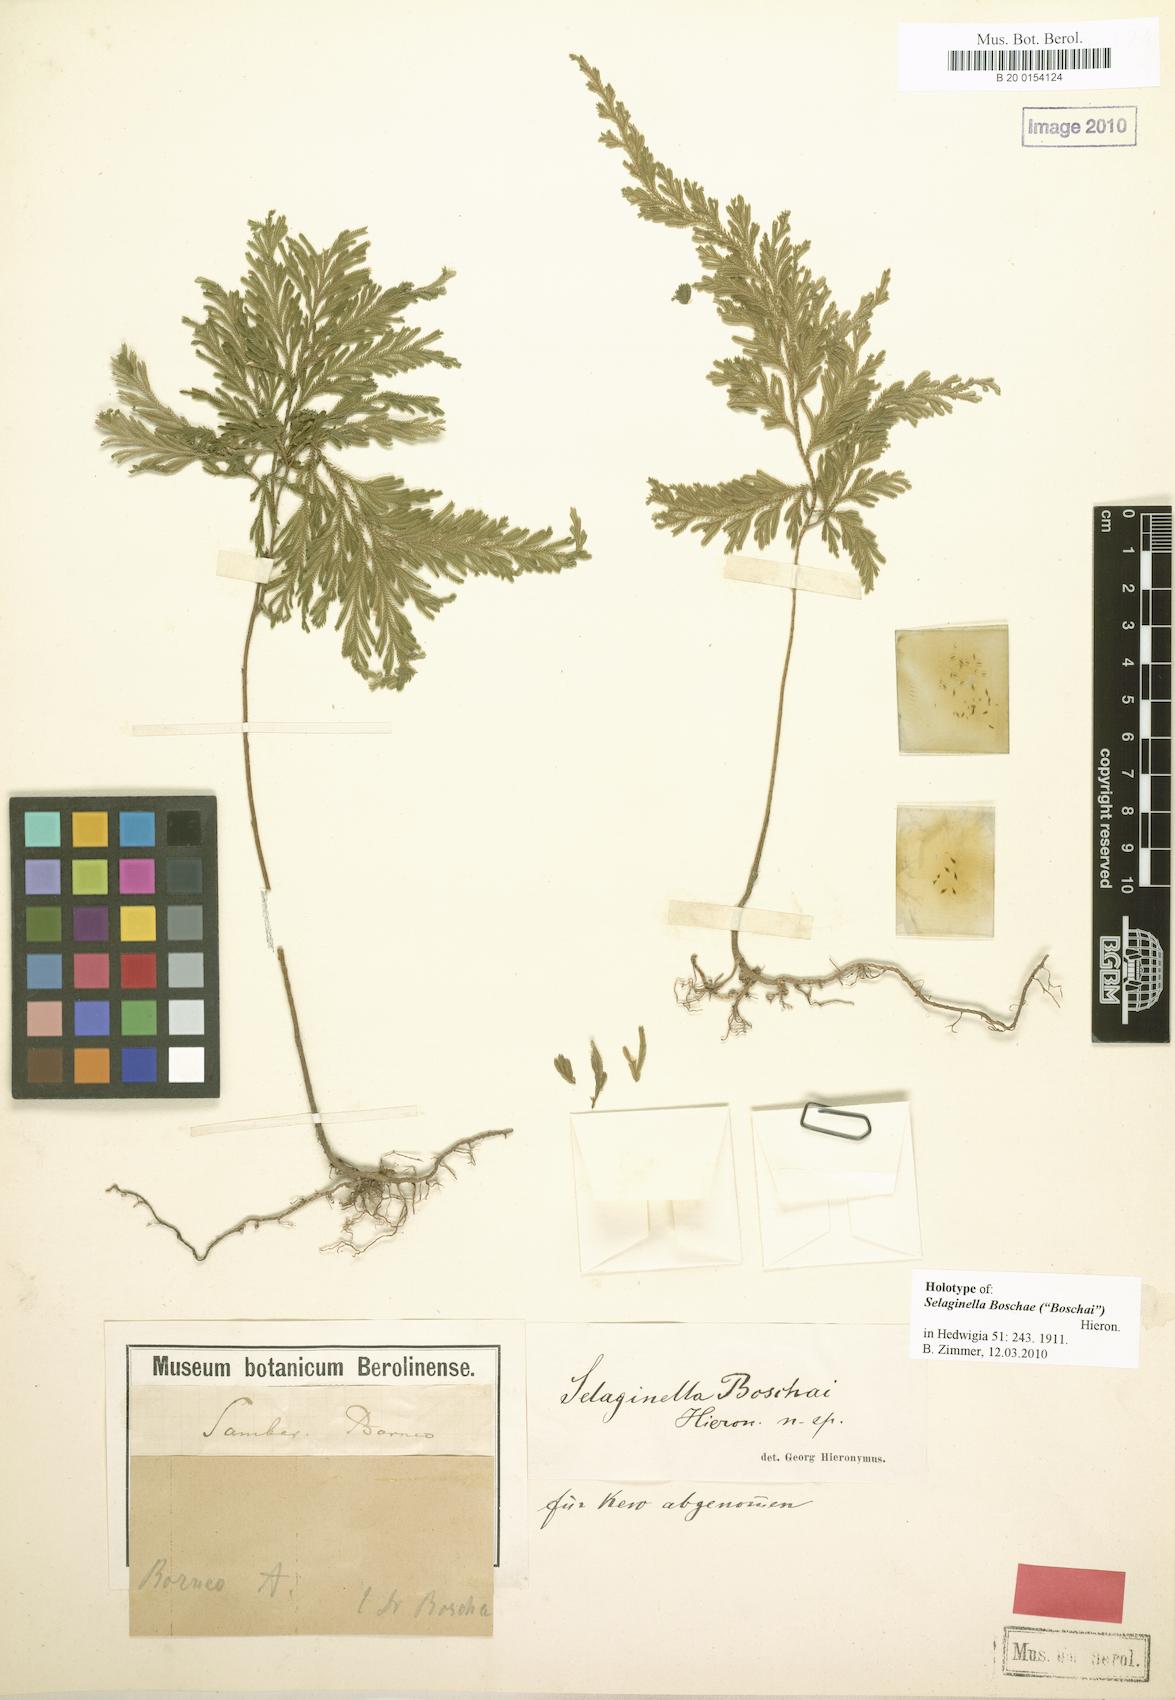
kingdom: Plantae
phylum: Tracheophyta
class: Lycopodiopsida
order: Selaginellales
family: Selaginellaceae
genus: Selaginella
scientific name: Selaginella boschai
